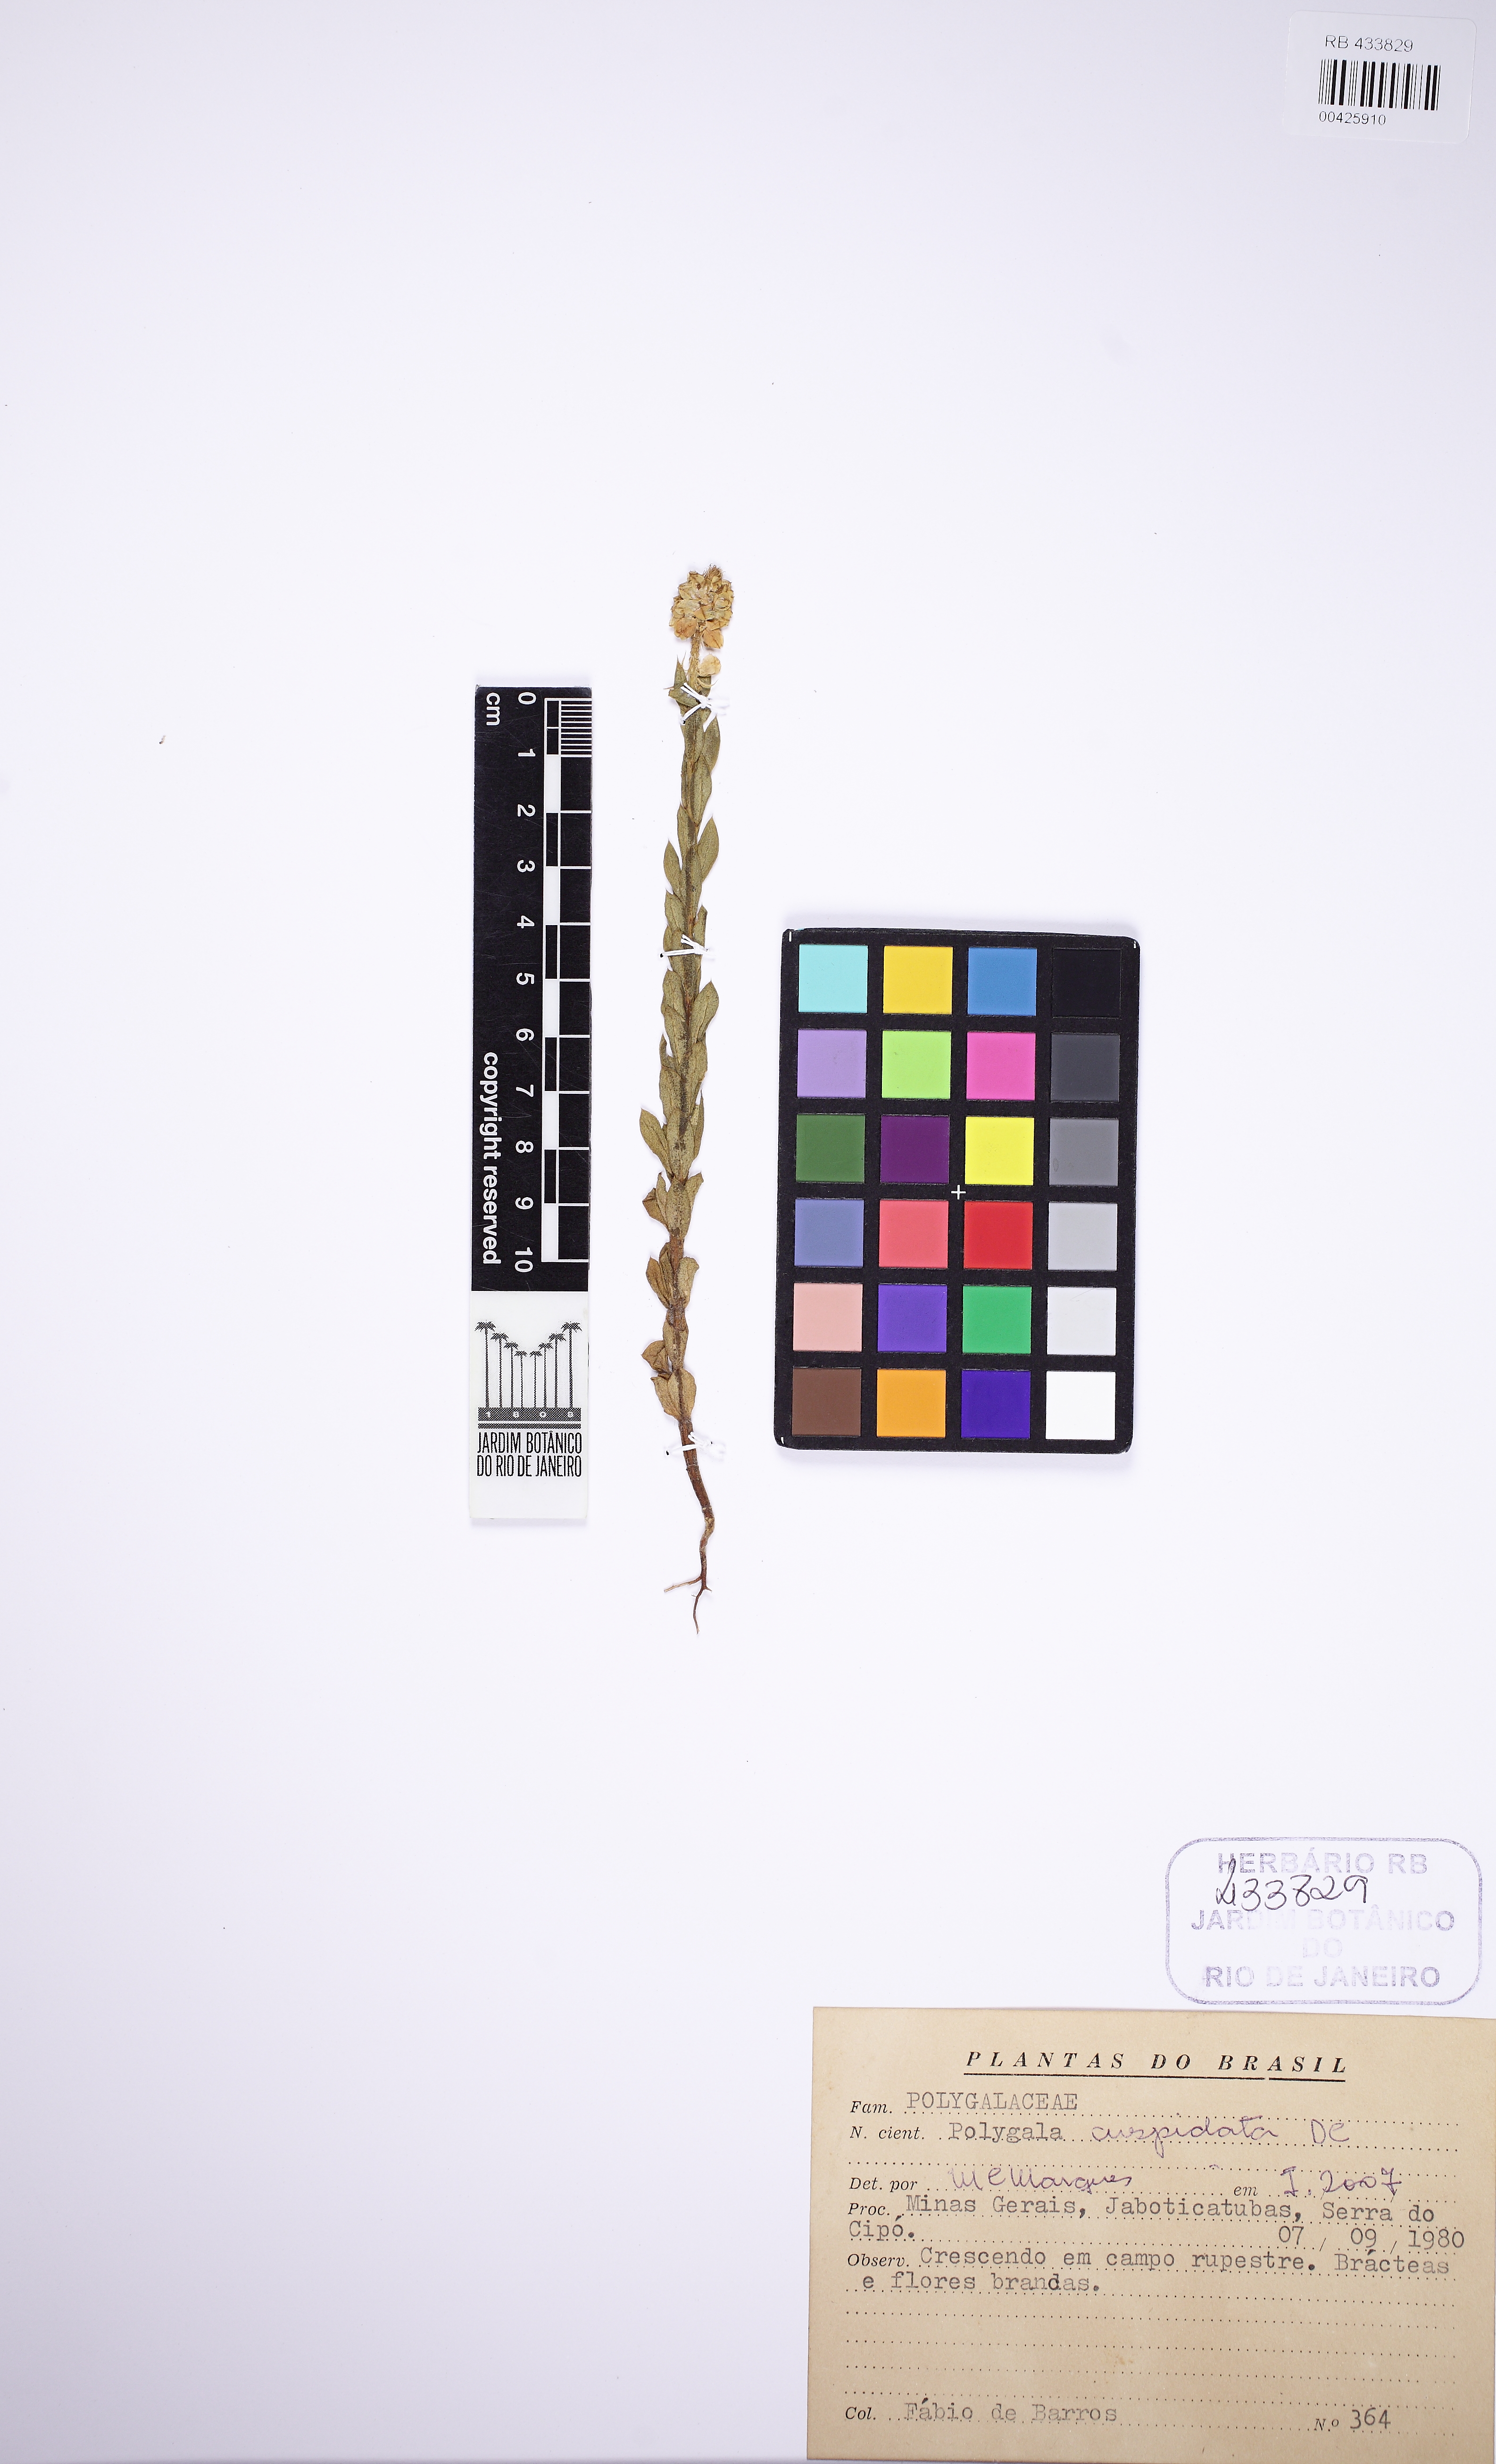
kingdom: Plantae
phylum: Tracheophyta
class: Magnoliopsida
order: Fabales
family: Polygalaceae
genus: Polygala
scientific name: Polygala cuspidata
